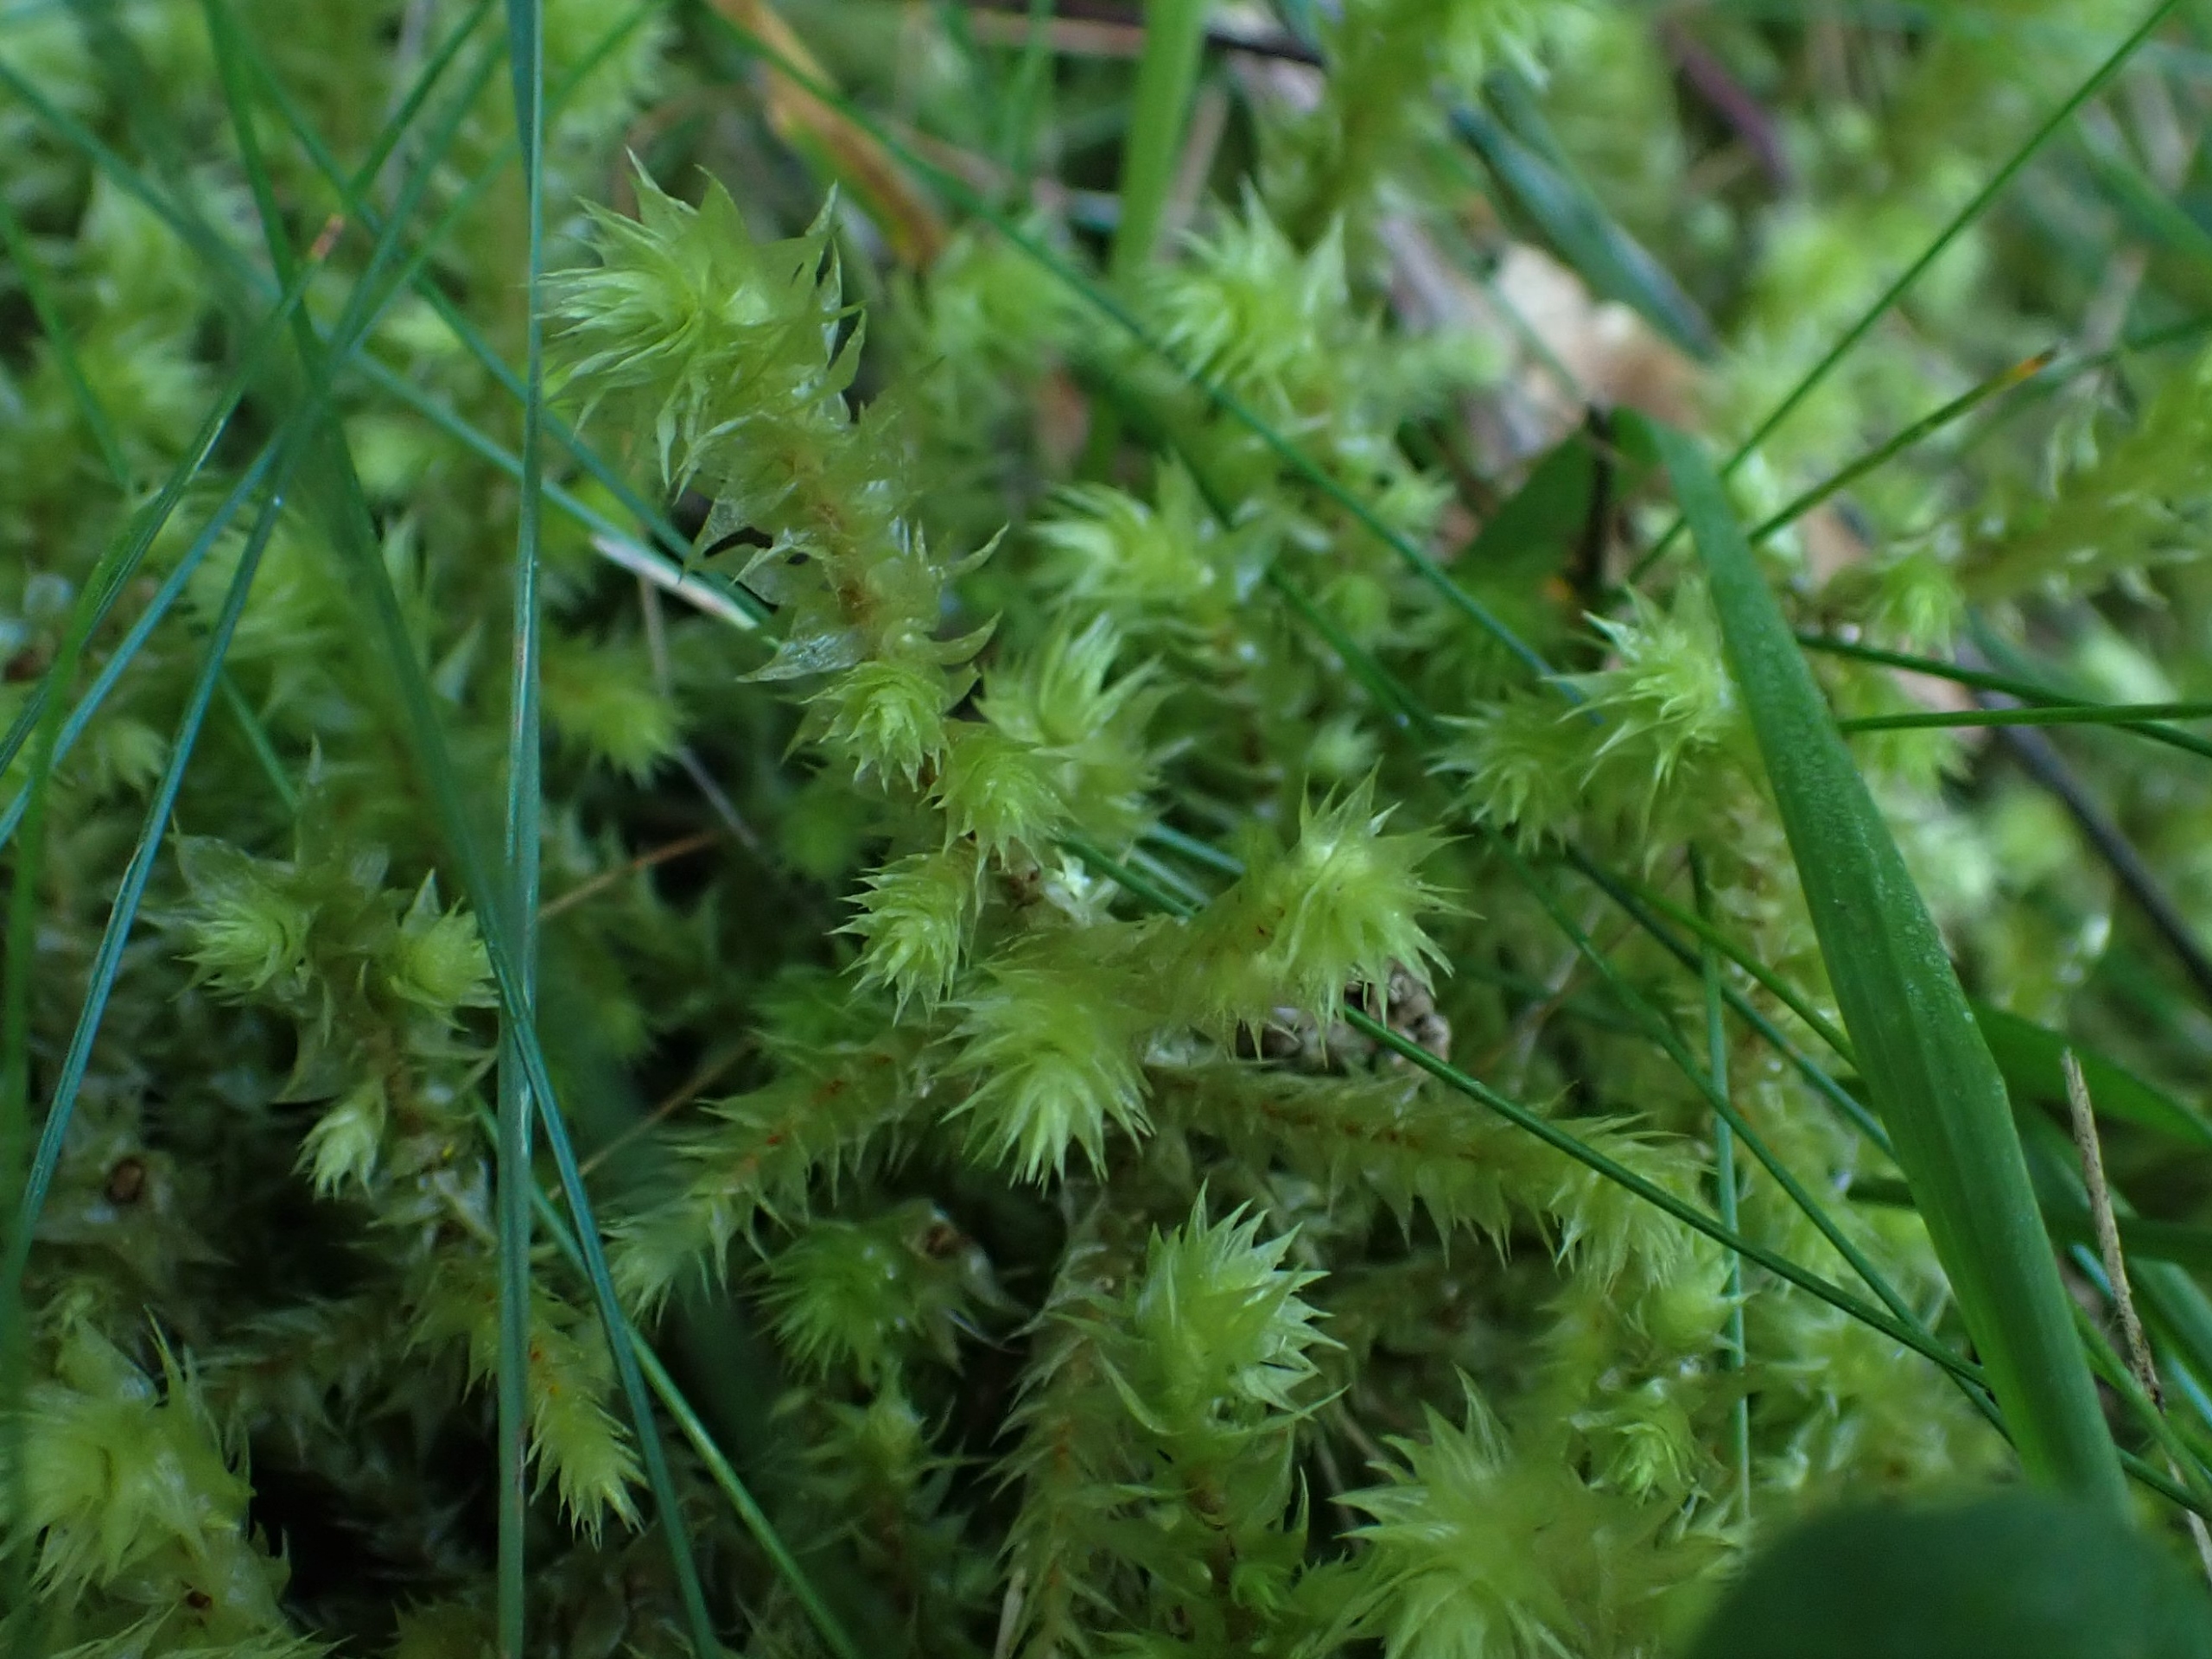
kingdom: Plantae
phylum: Bryophyta
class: Bryopsida
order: Hypnales
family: Hylocomiaceae
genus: Hylocomiadelphus
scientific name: Hylocomiadelphus triquetrus
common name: Stor kransemos
